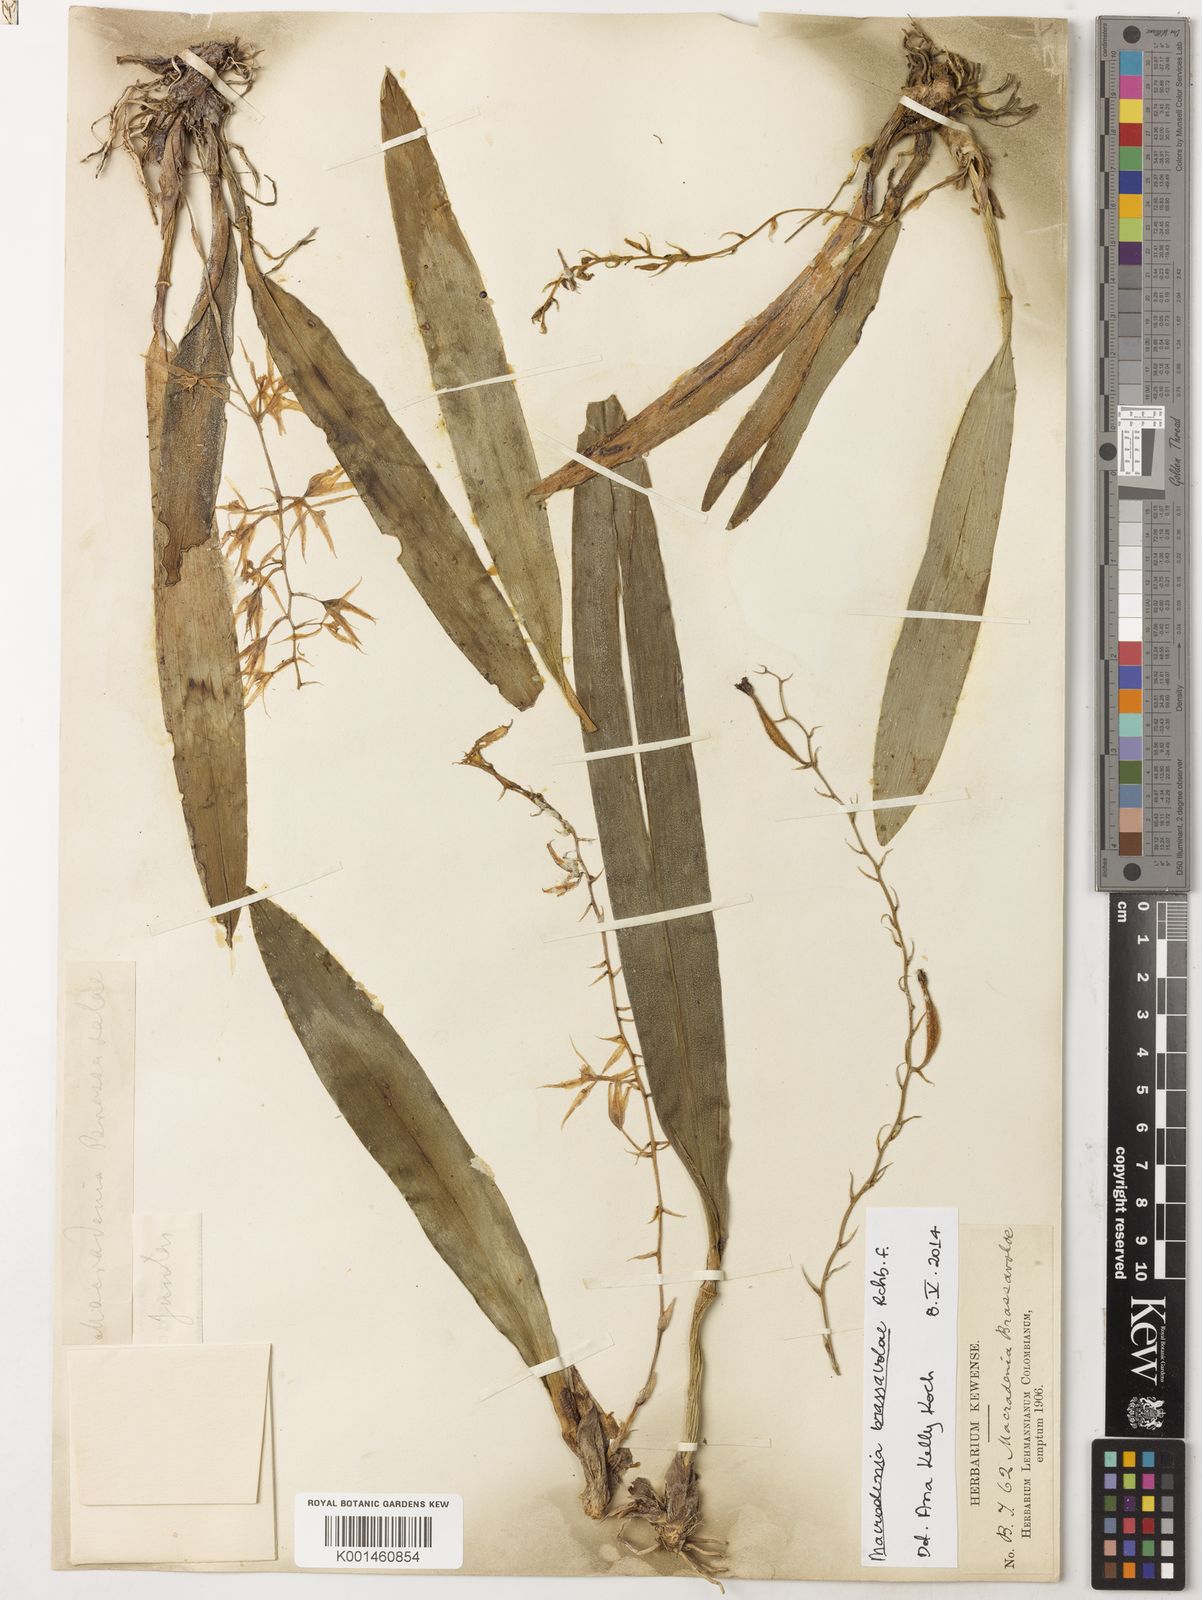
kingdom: Plantae
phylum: Tracheophyta
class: Liliopsida
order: Asparagales
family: Orchidaceae
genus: Macradenia
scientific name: Macradenia brassavolae
